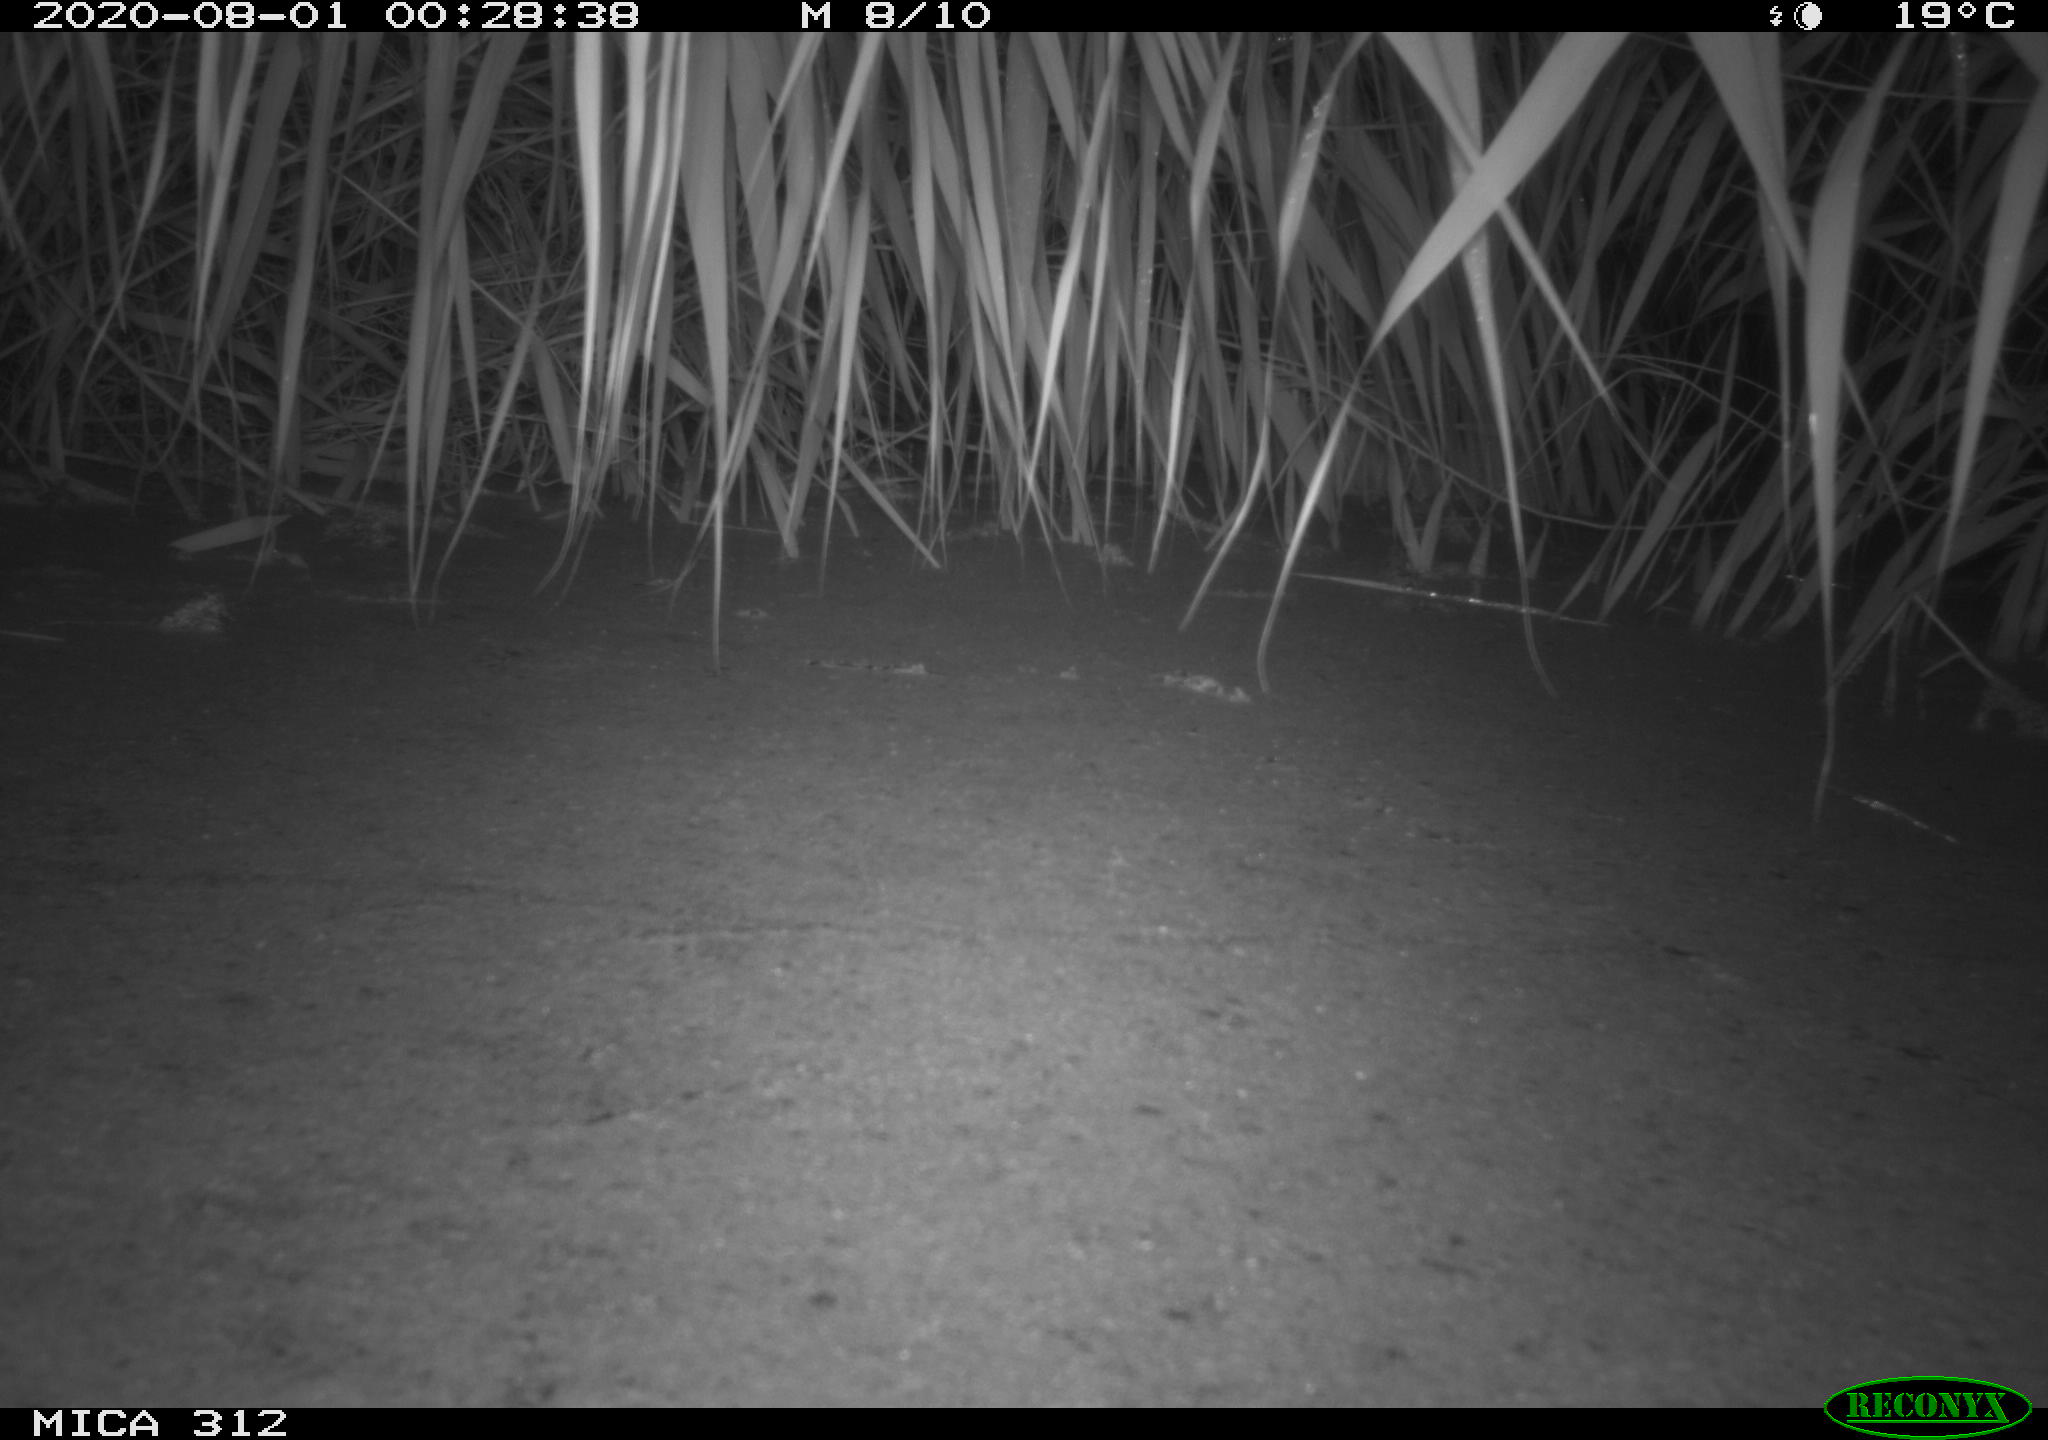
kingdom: Animalia
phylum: Chordata
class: Mammalia
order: Rodentia
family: Muridae
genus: Rattus
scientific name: Rattus norvegicus
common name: Brown rat
